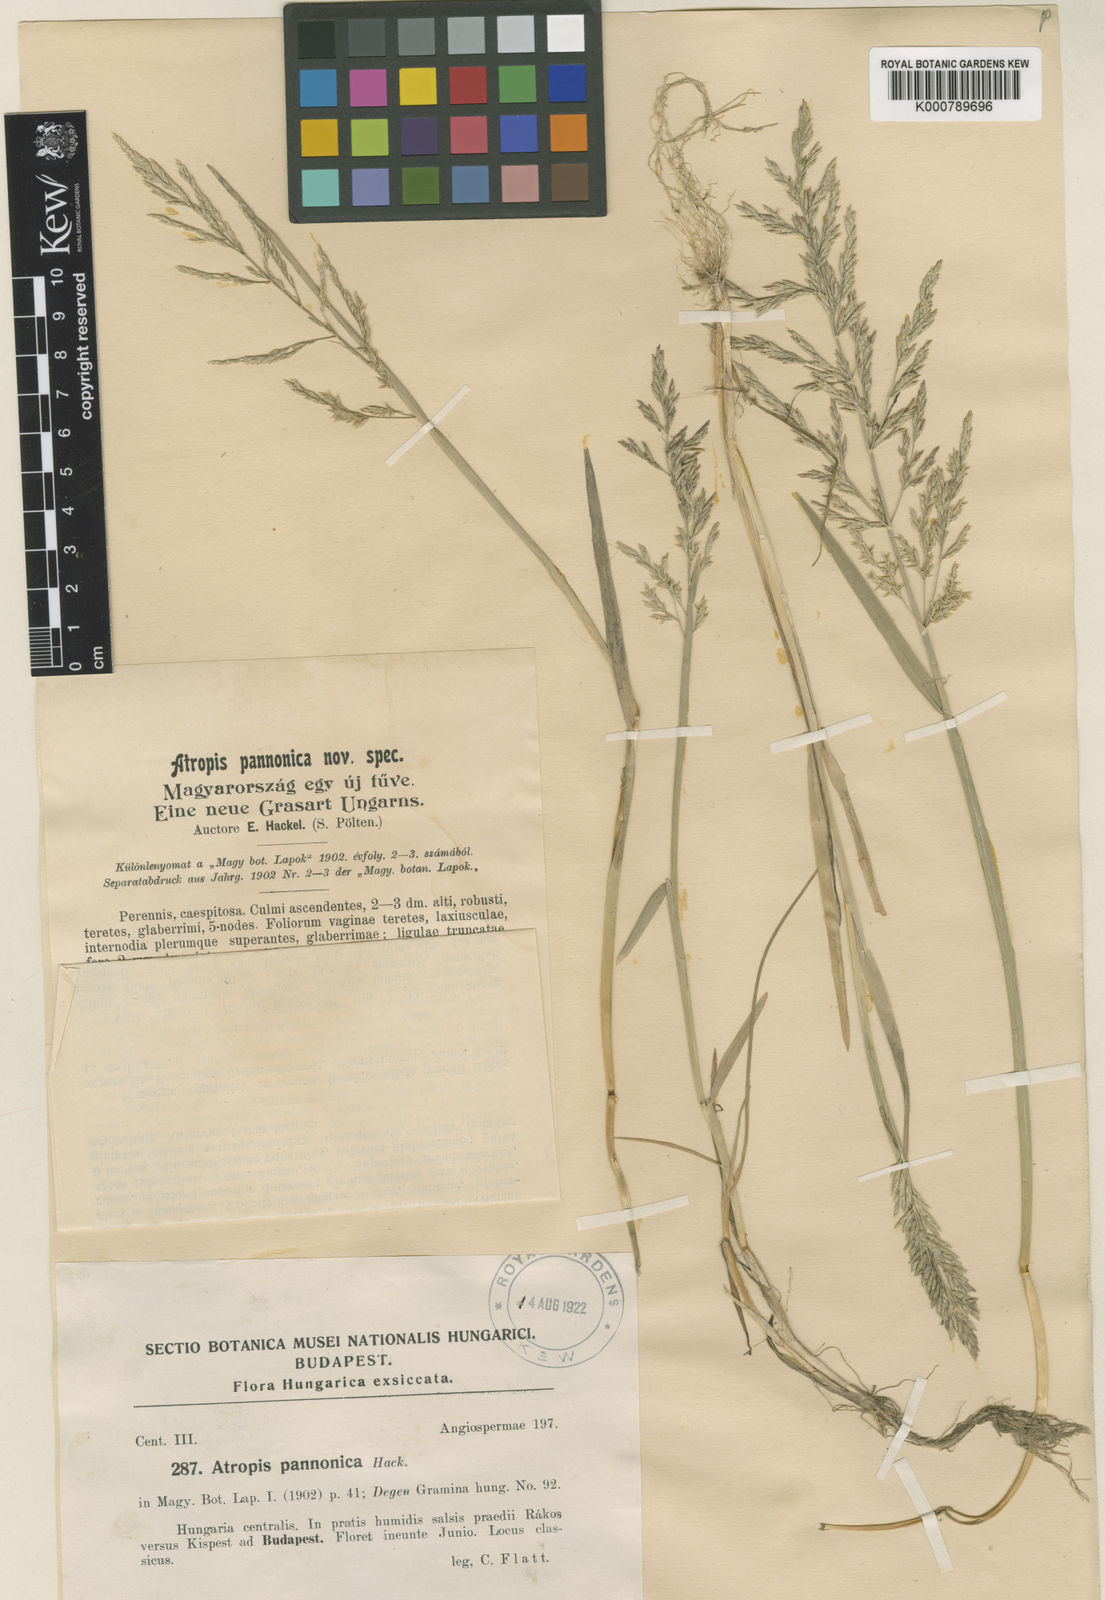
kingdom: Plantae
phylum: Tracheophyta
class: Liliopsida
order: Poales
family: Poaceae
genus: Puccinellia
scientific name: Puccinellia distans
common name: Weeping alkaligrass
